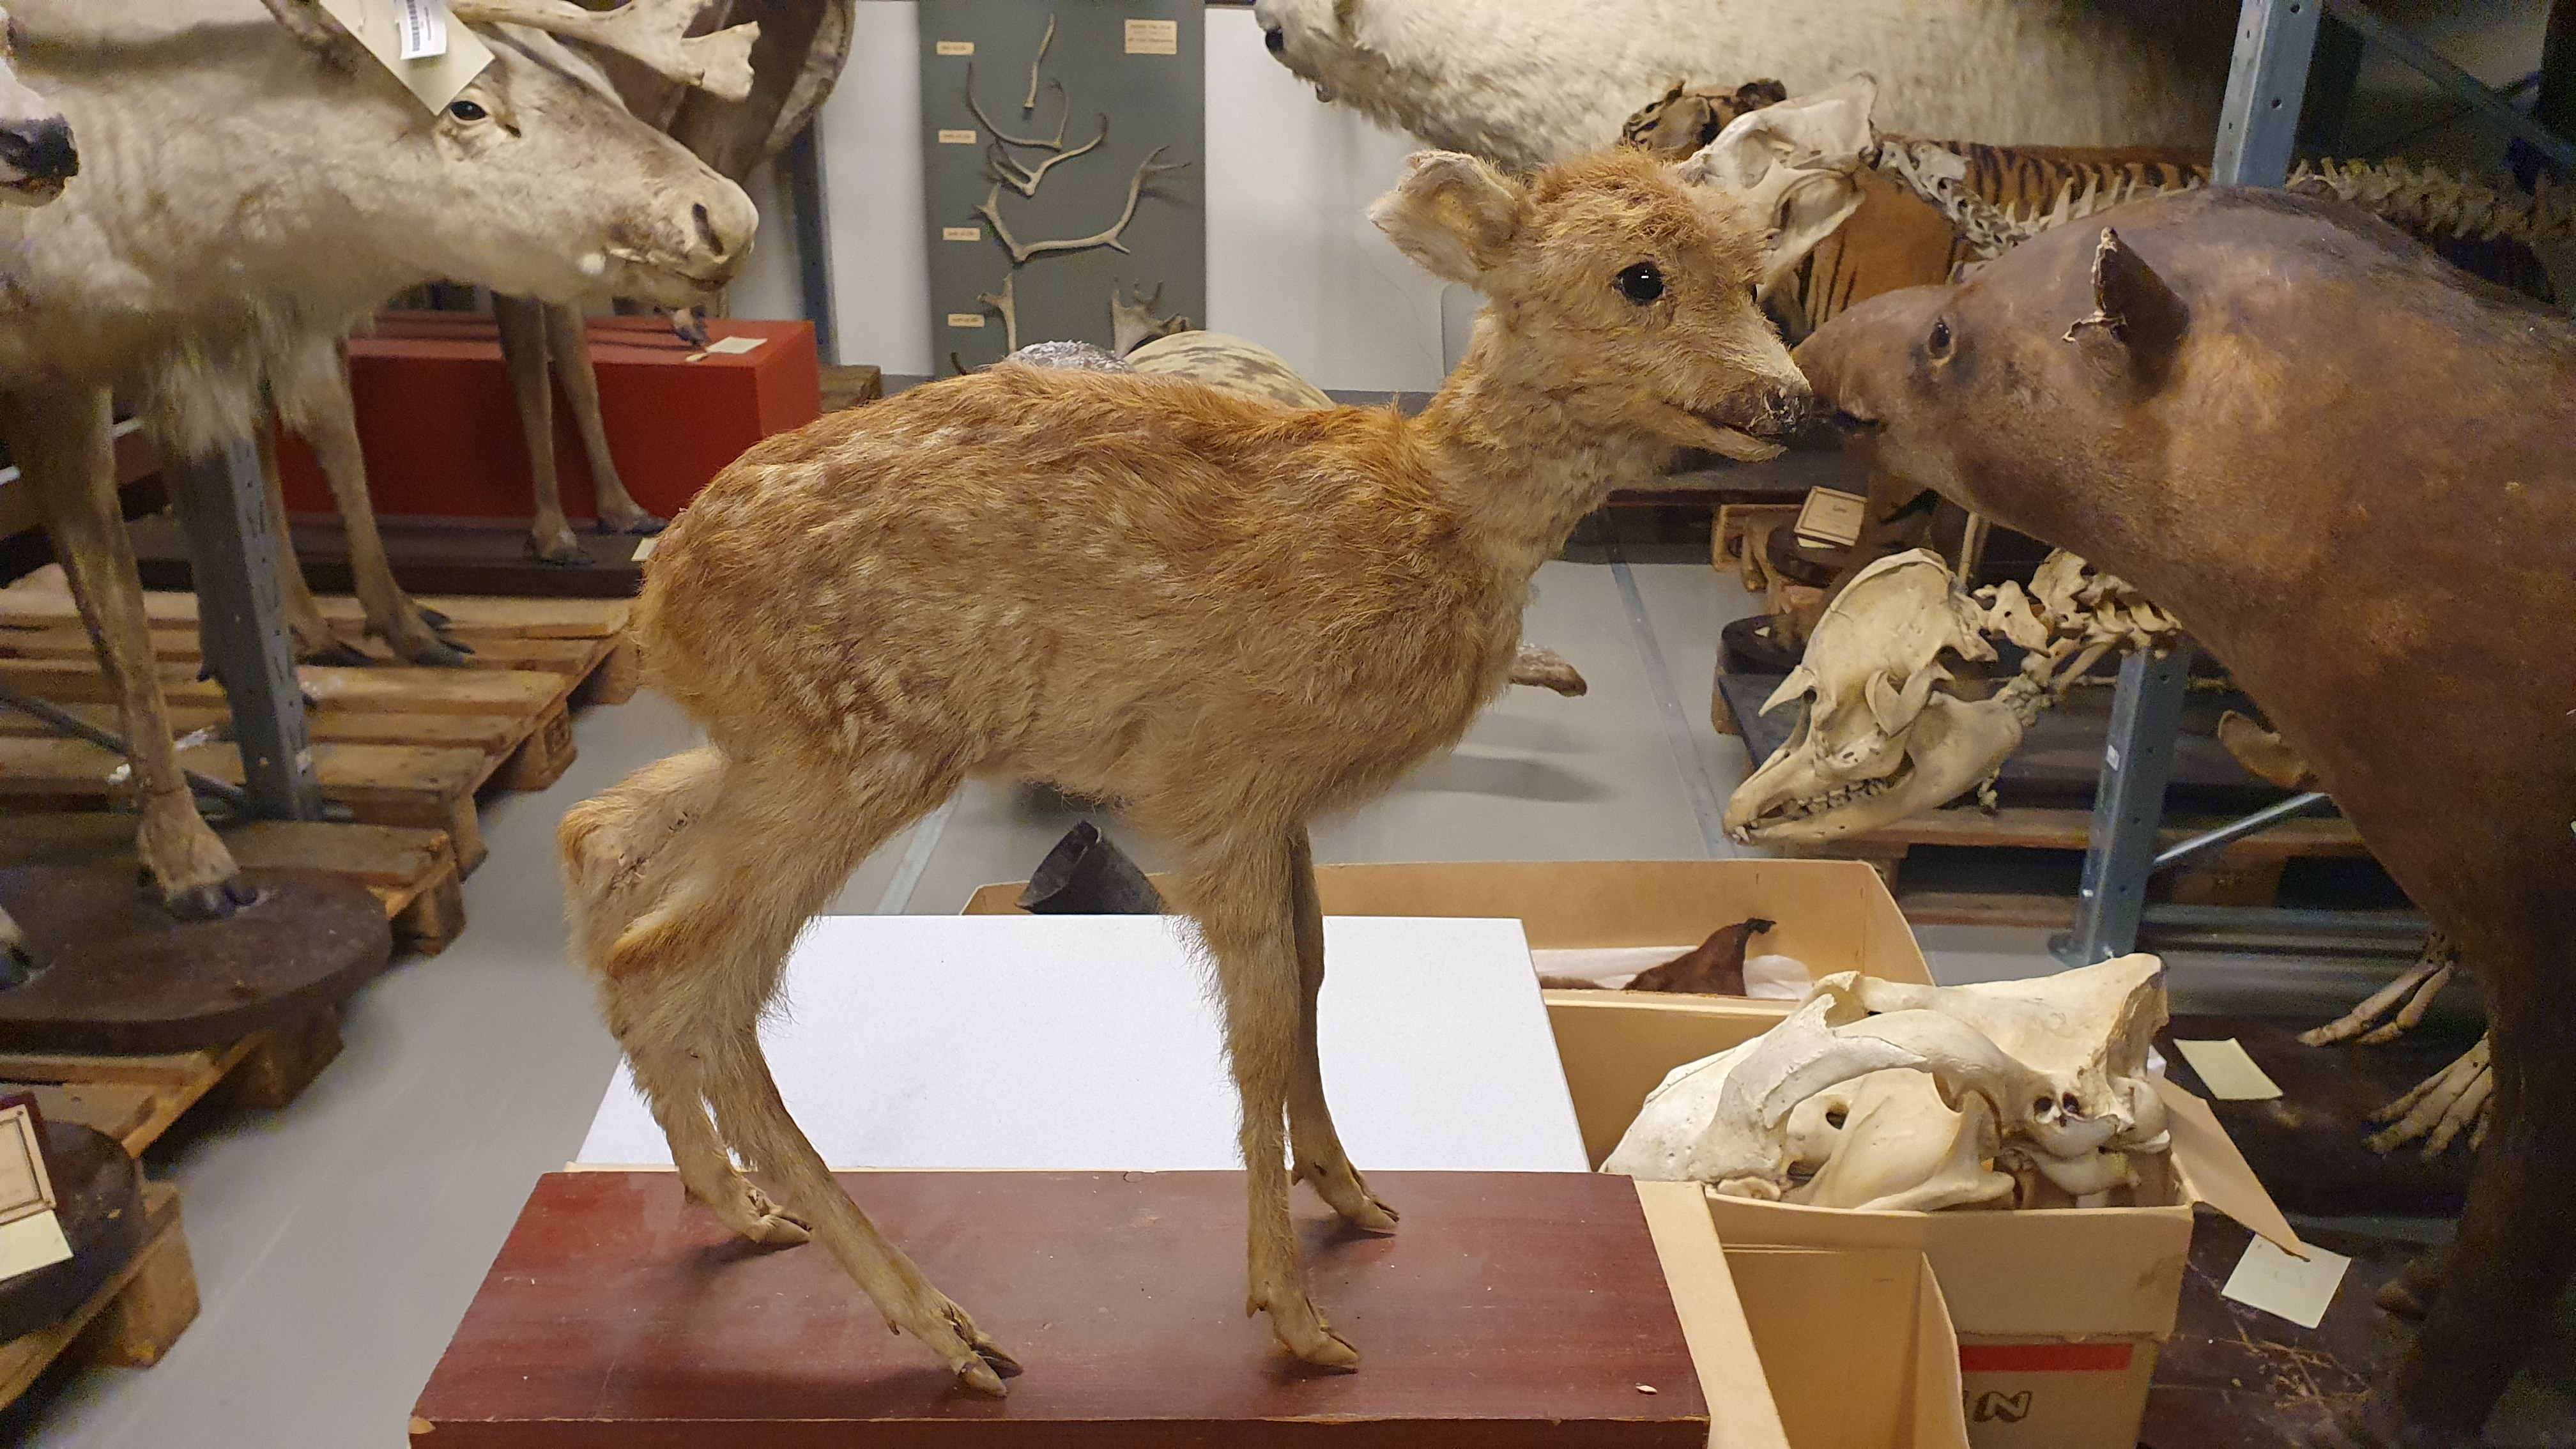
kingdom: Animalia
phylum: Chordata
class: Mammalia
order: Artiodactyla
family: Cervidae
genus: Capreolus
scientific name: Capreolus capreolus
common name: Western roe deer
